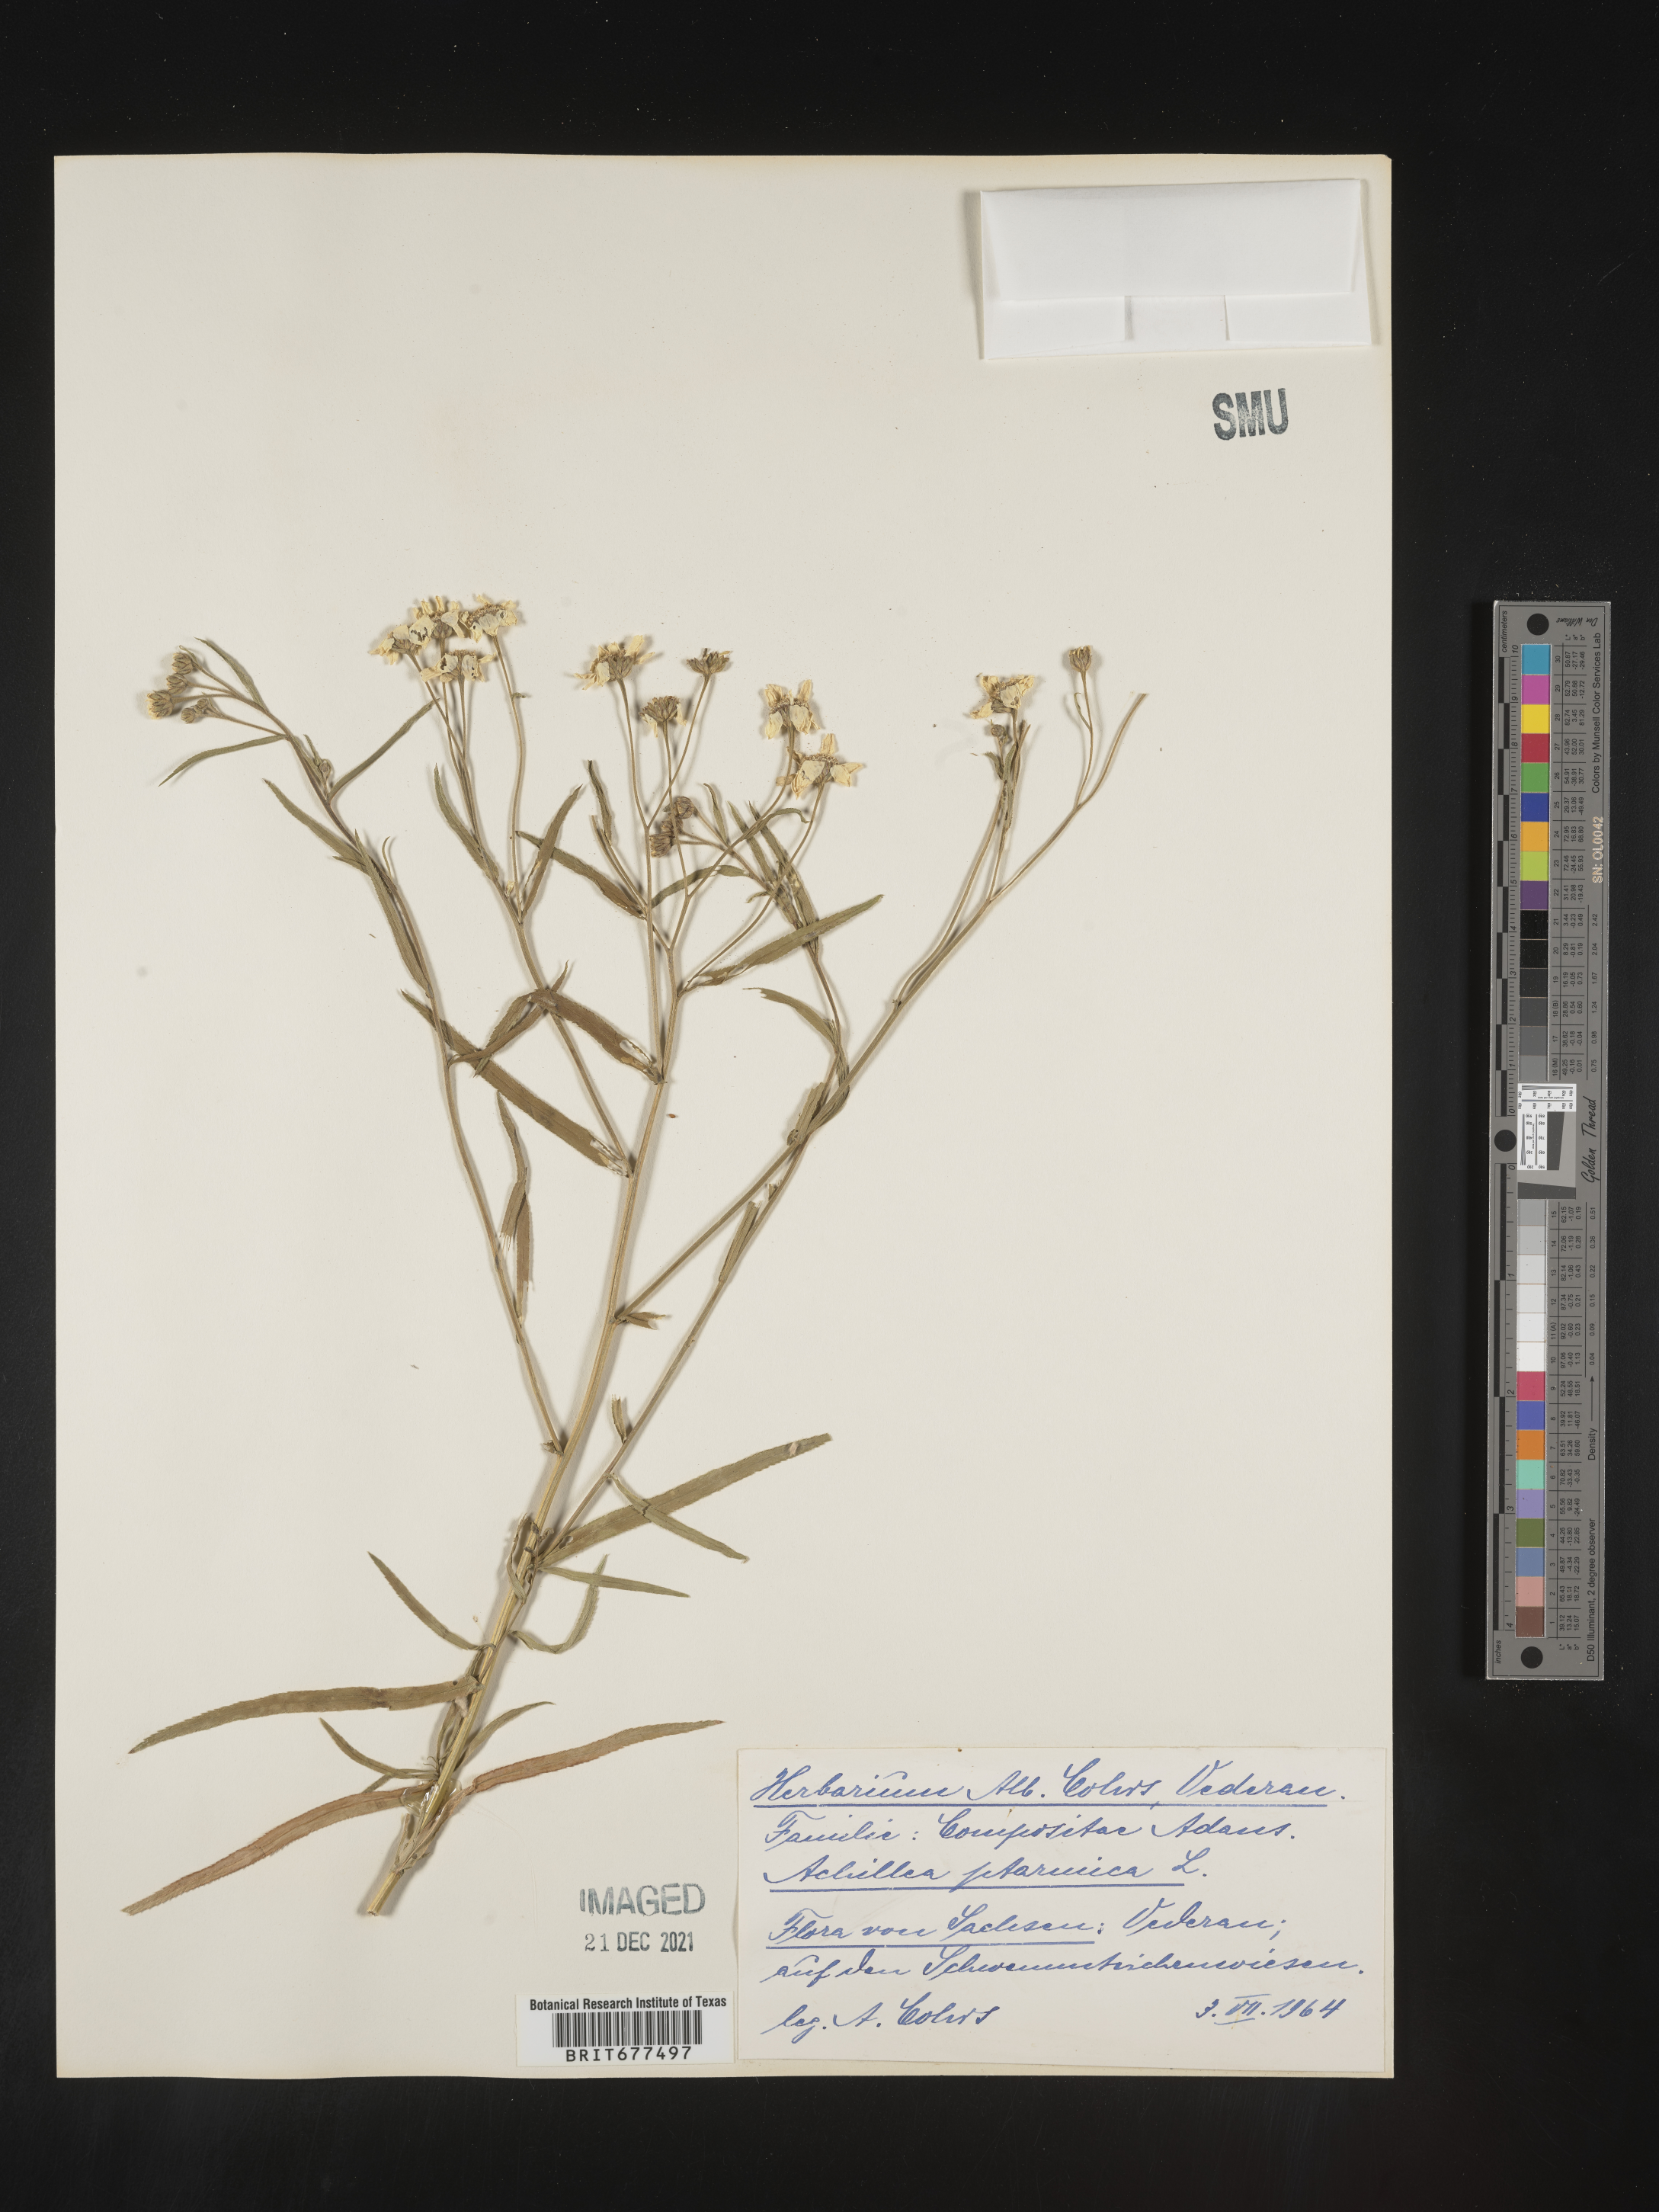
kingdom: Plantae
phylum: Tracheophyta
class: Magnoliopsida
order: Asterales
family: Asteraceae
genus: Achillea
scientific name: Achillea ptarmica
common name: Sneezeweed
